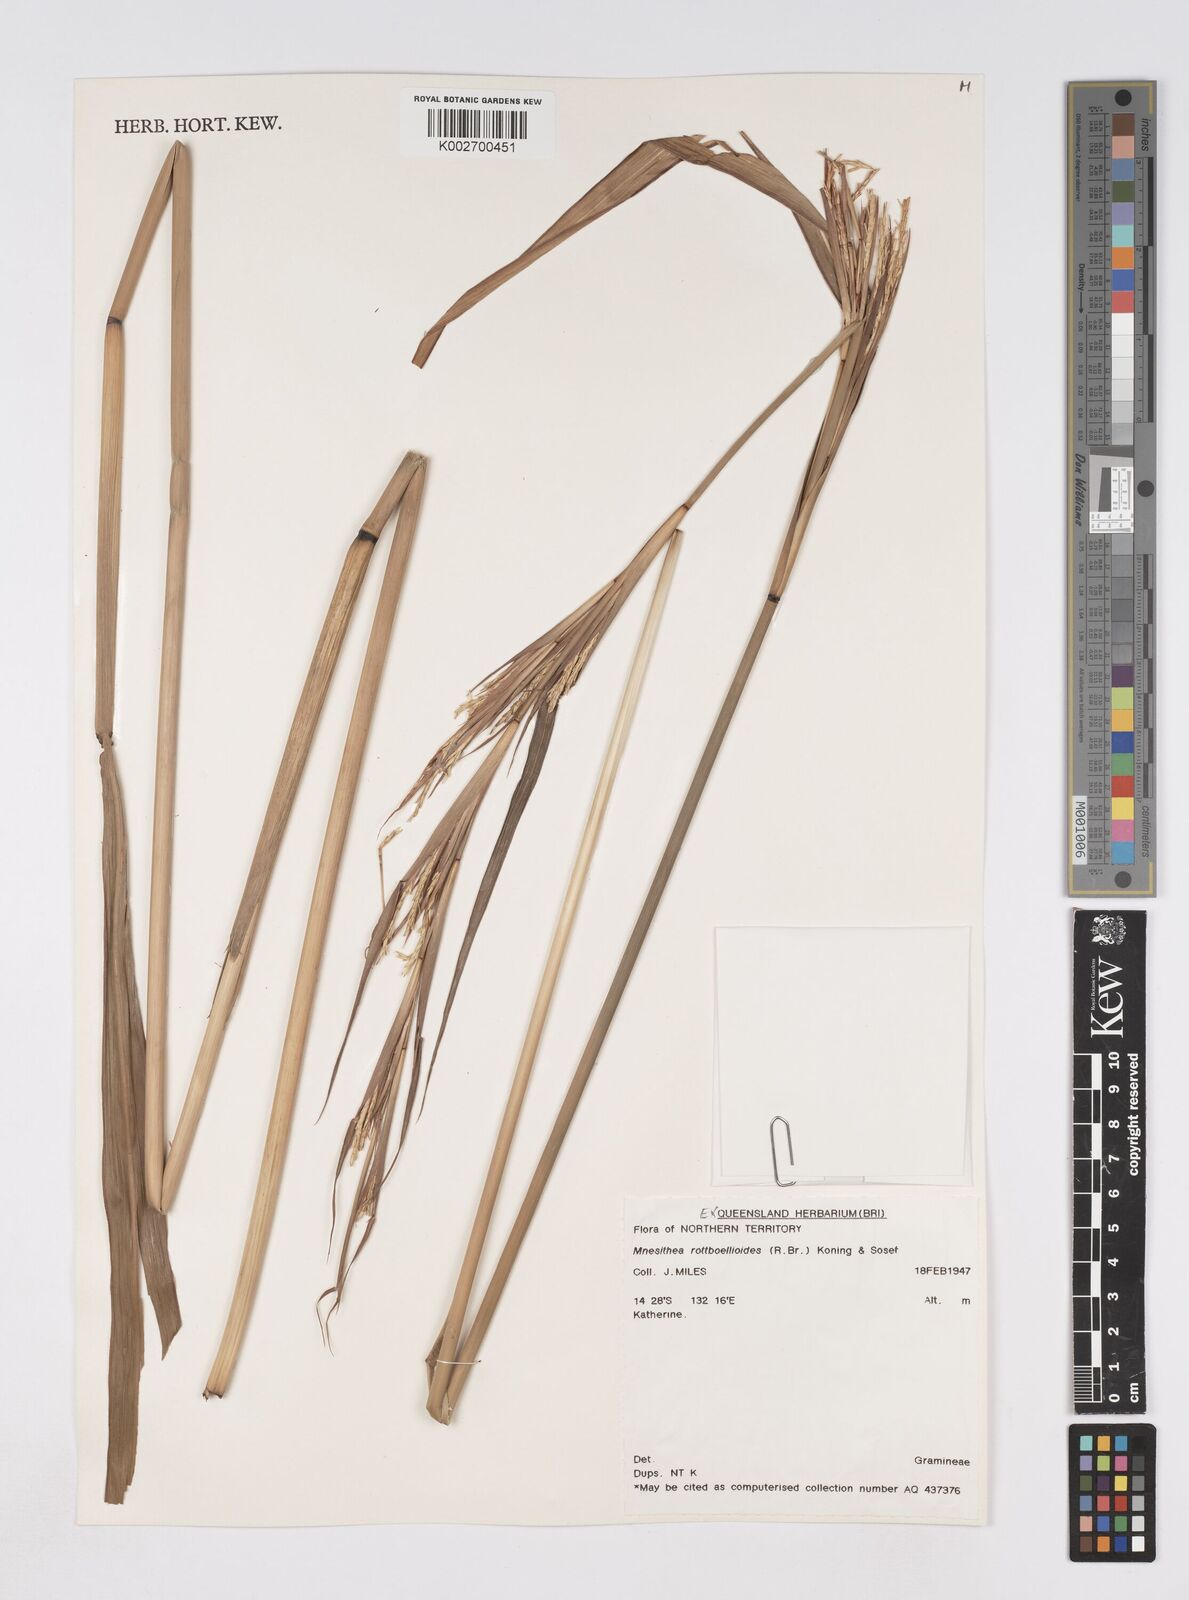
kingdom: Plantae
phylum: Tracheophyta
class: Liliopsida
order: Poales
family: Poaceae
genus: Rottboellia
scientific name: Rottboellia rottboellioides
